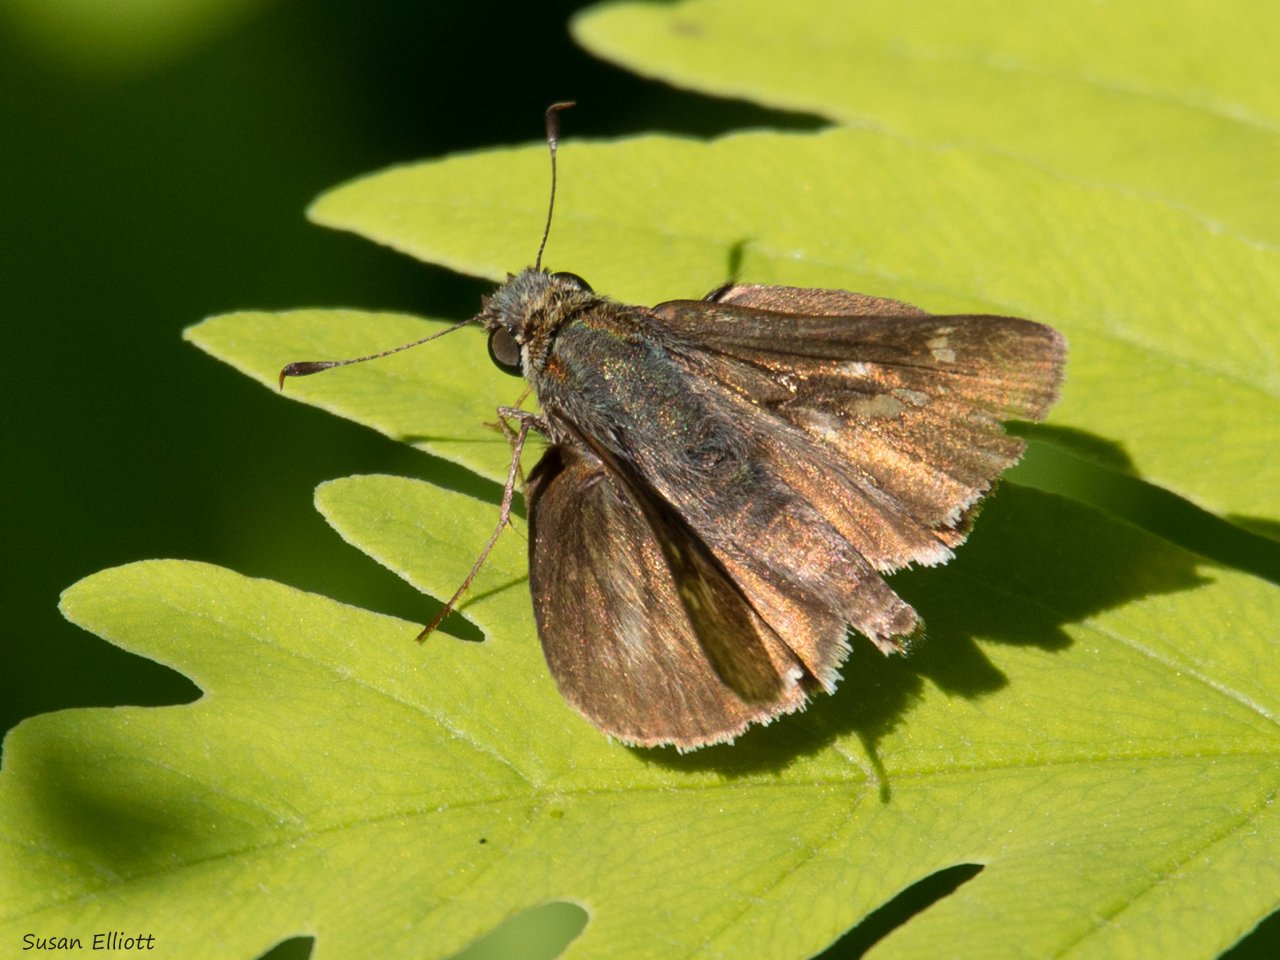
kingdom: Animalia
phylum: Arthropoda
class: Insecta
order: Lepidoptera
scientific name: Lepidoptera
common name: Butterflies
